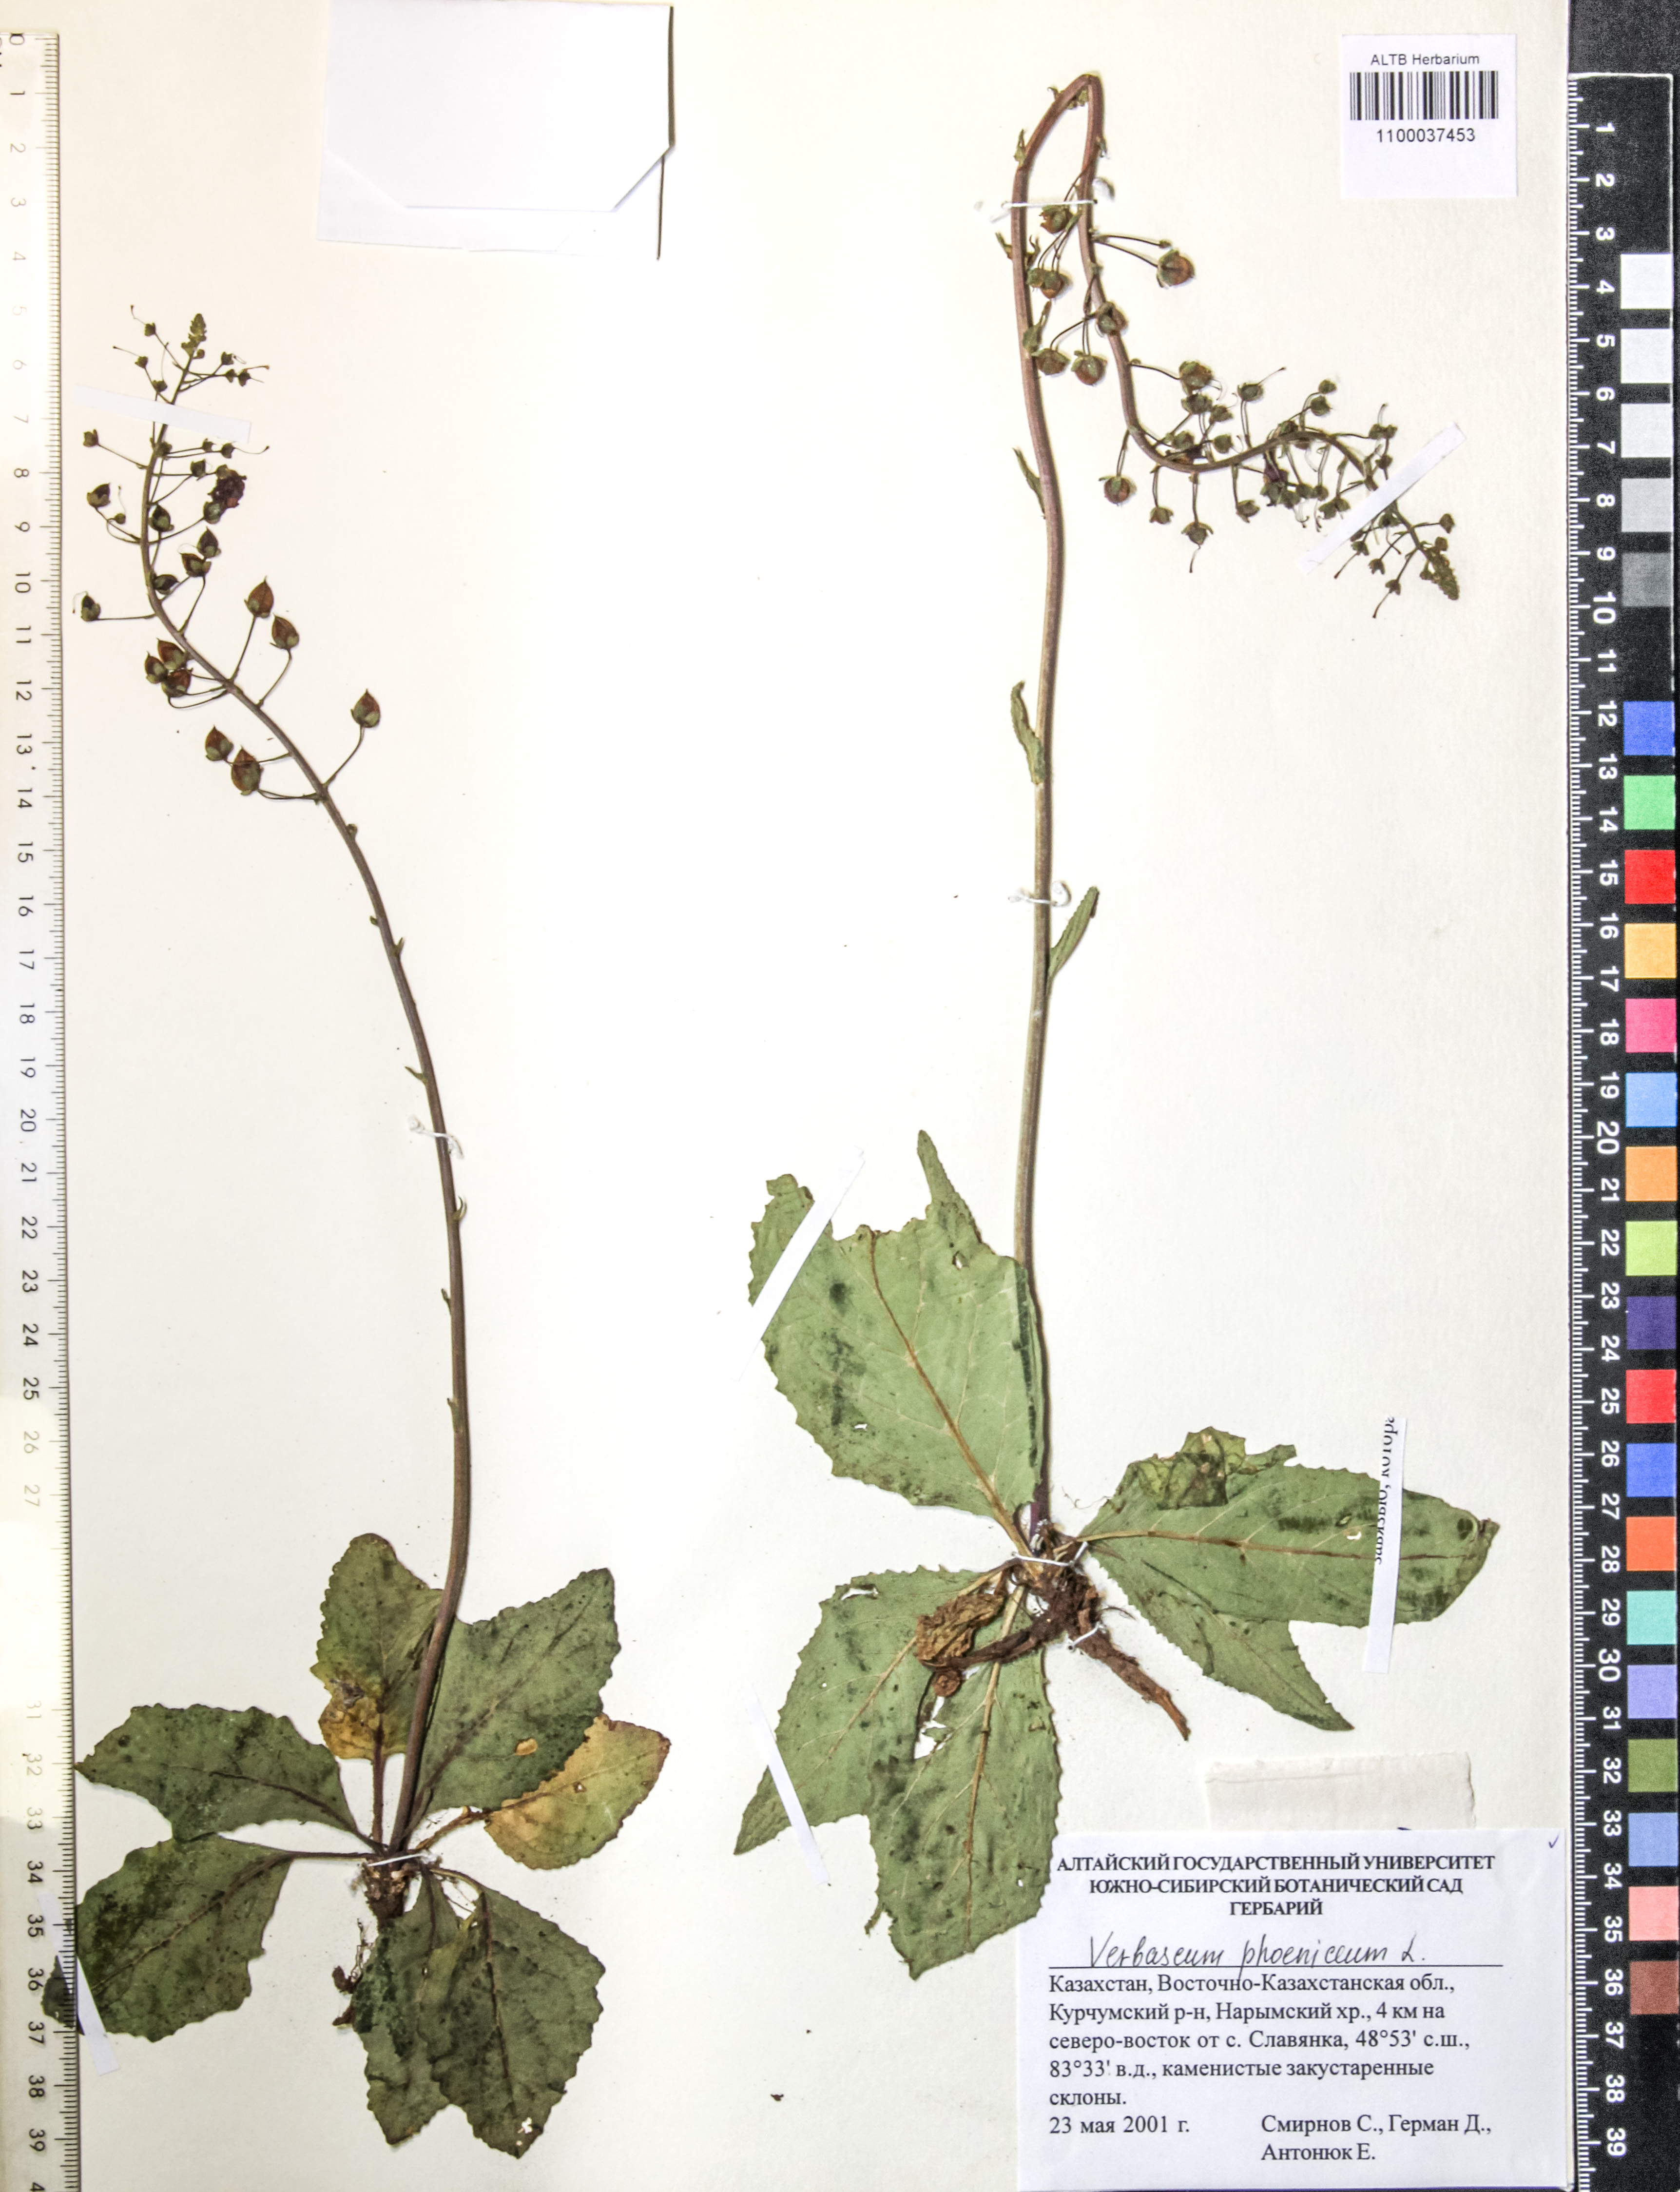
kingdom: Plantae
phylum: Tracheophyta
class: Magnoliopsida
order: Lamiales
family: Scrophulariaceae
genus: Verbascum
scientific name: Verbascum phoeniceum
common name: Purple mullein
